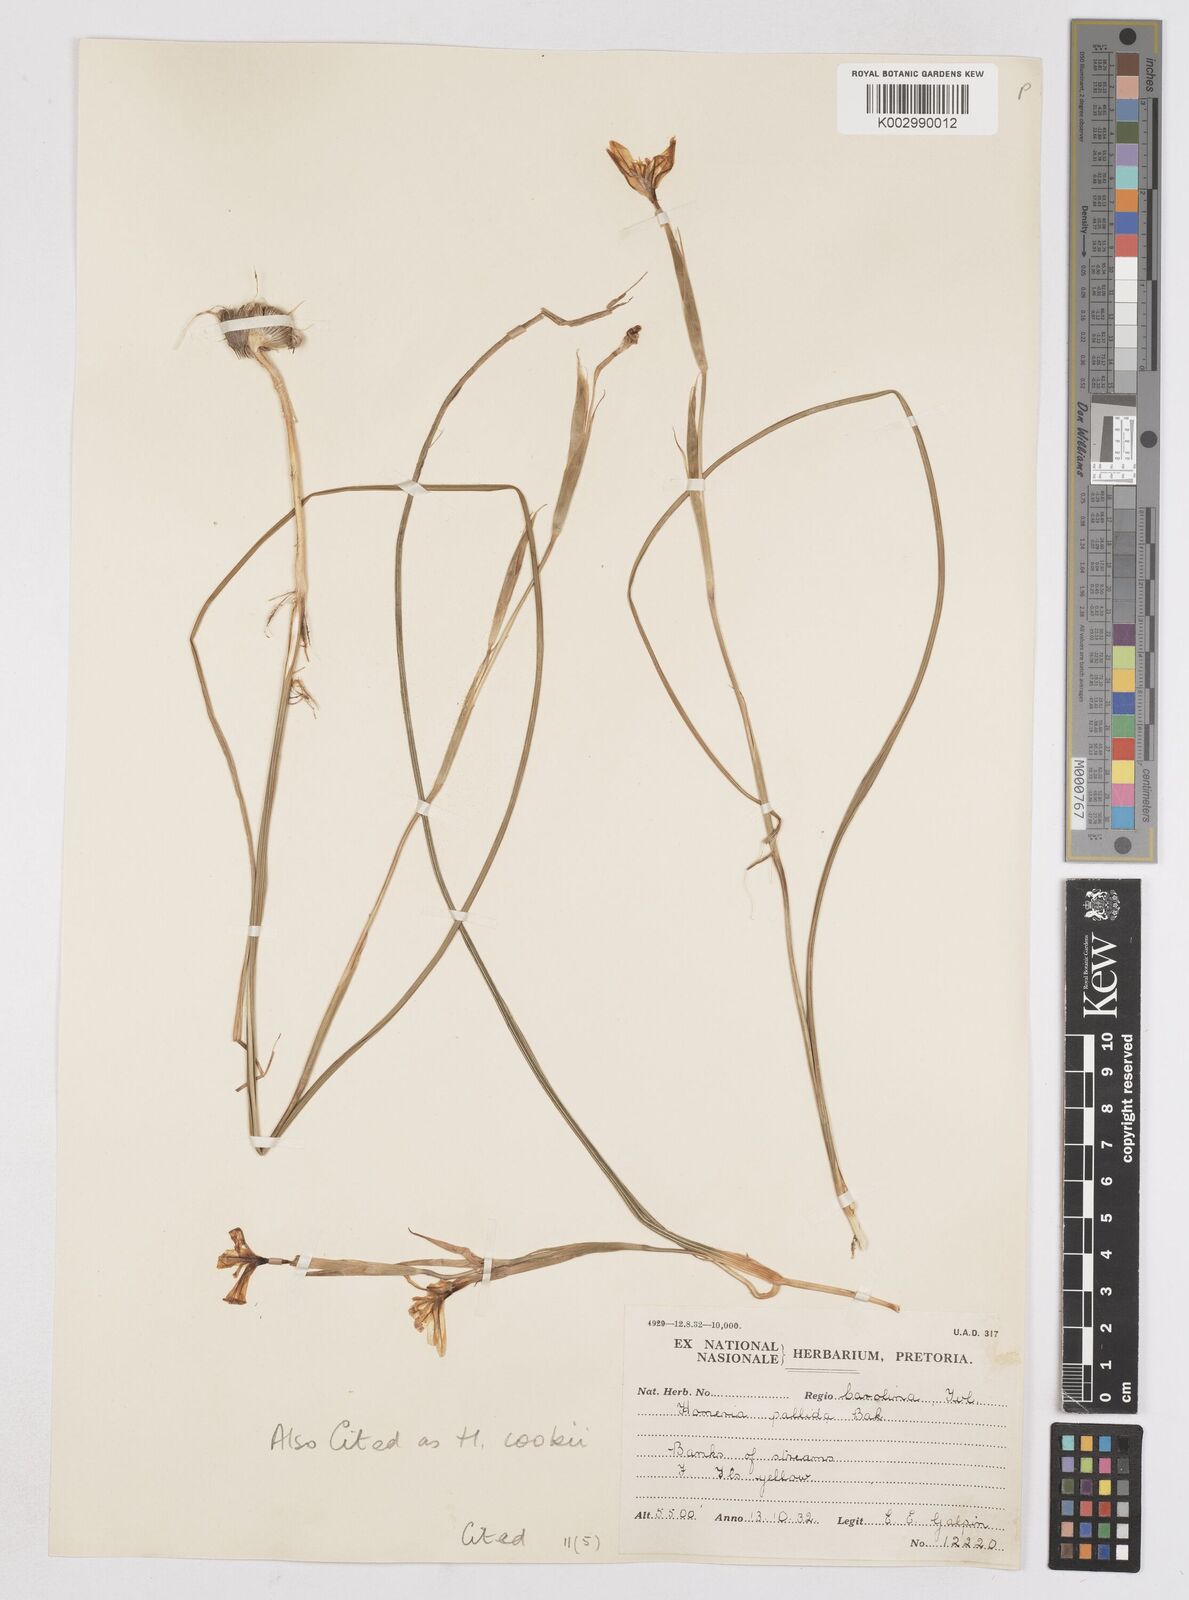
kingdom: Plantae
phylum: Tracheophyta
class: Liliopsida
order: Asparagales
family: Iridaceae
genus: Moraea
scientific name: Moraea pallida
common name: Yellow tulp
